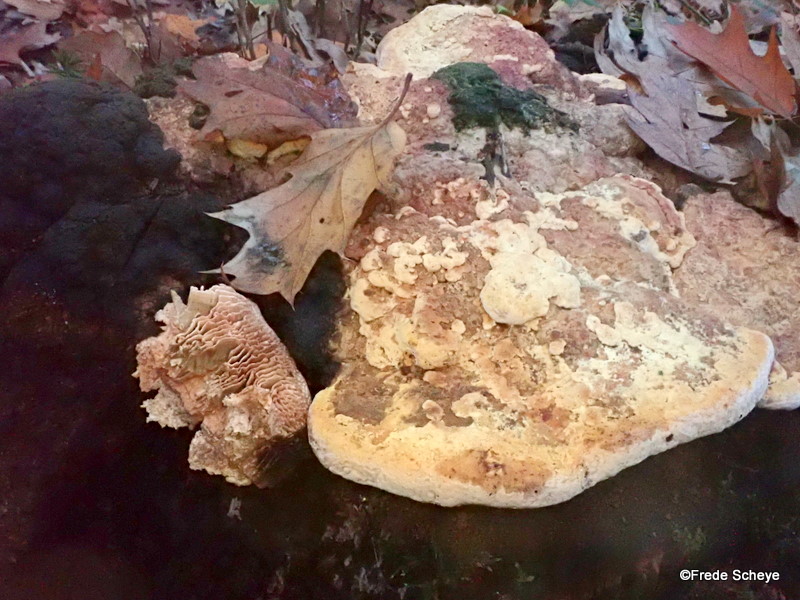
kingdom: Fungi
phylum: Basidiomycota
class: Agaricomycetes
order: Polyporales
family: Fomitopsidaceae
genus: Daedalea
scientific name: Daedalea quercina
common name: ege-labyrintsvamp
